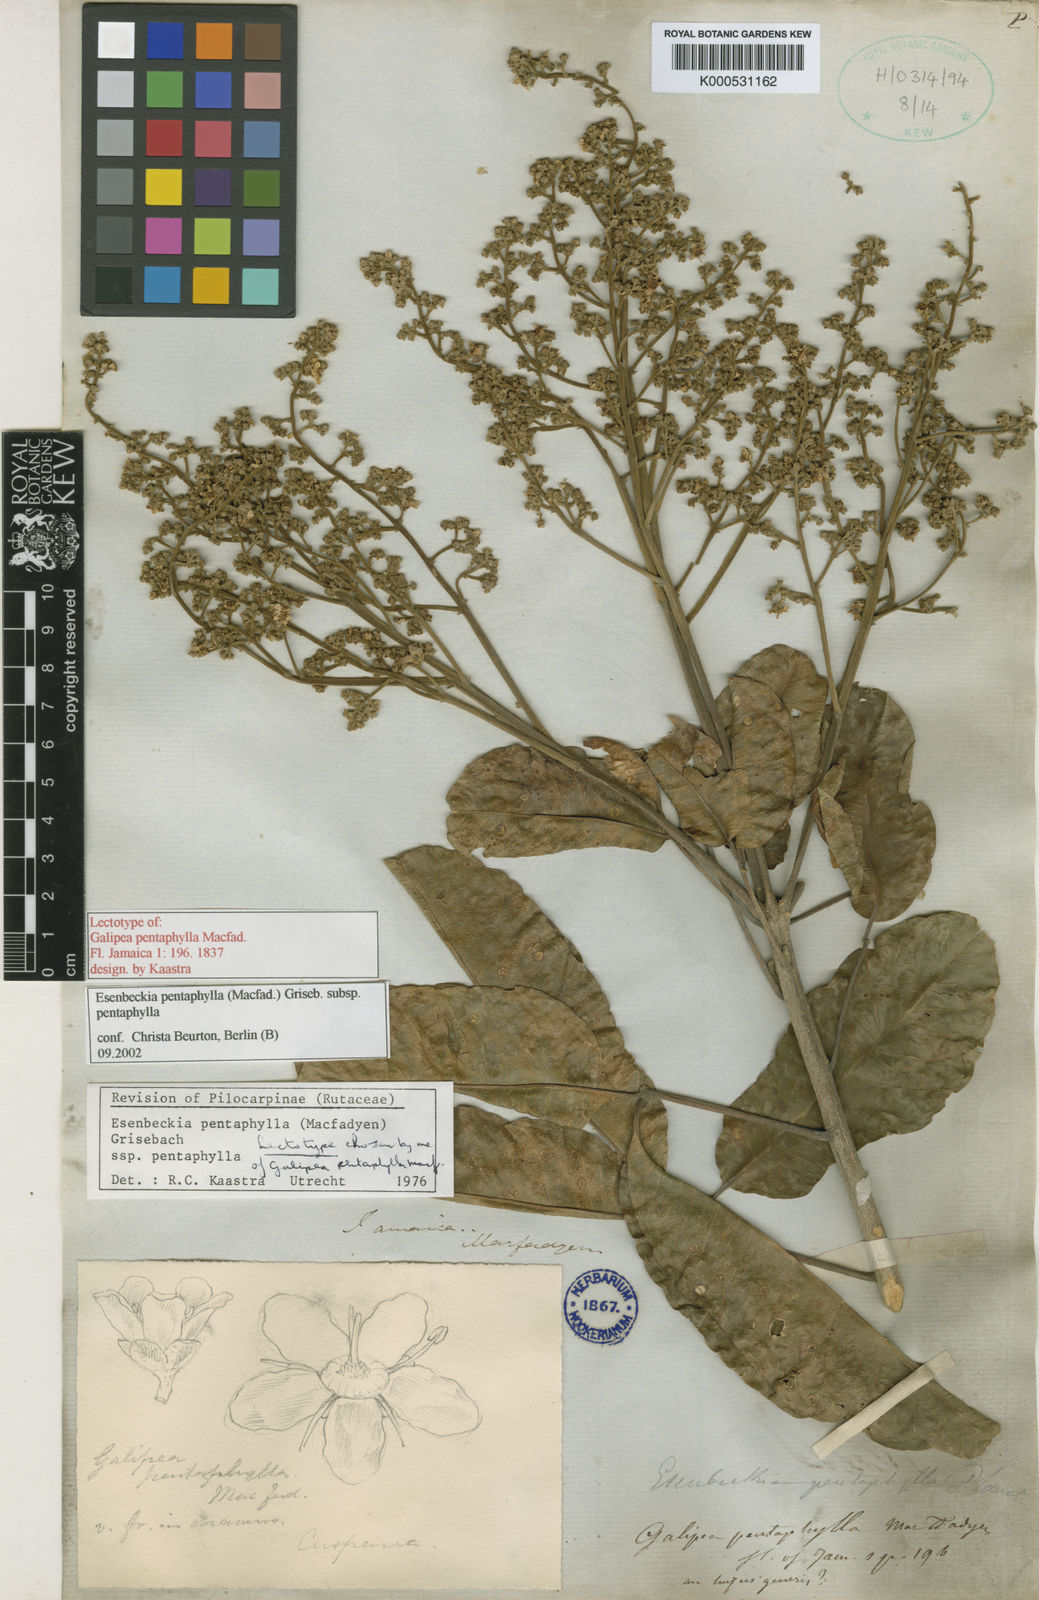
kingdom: Plantae
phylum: Tracheophyta
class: Magnoliopsida
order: Sapindales
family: Rutaceae
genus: Esenbeckia
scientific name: Esenbeckia
